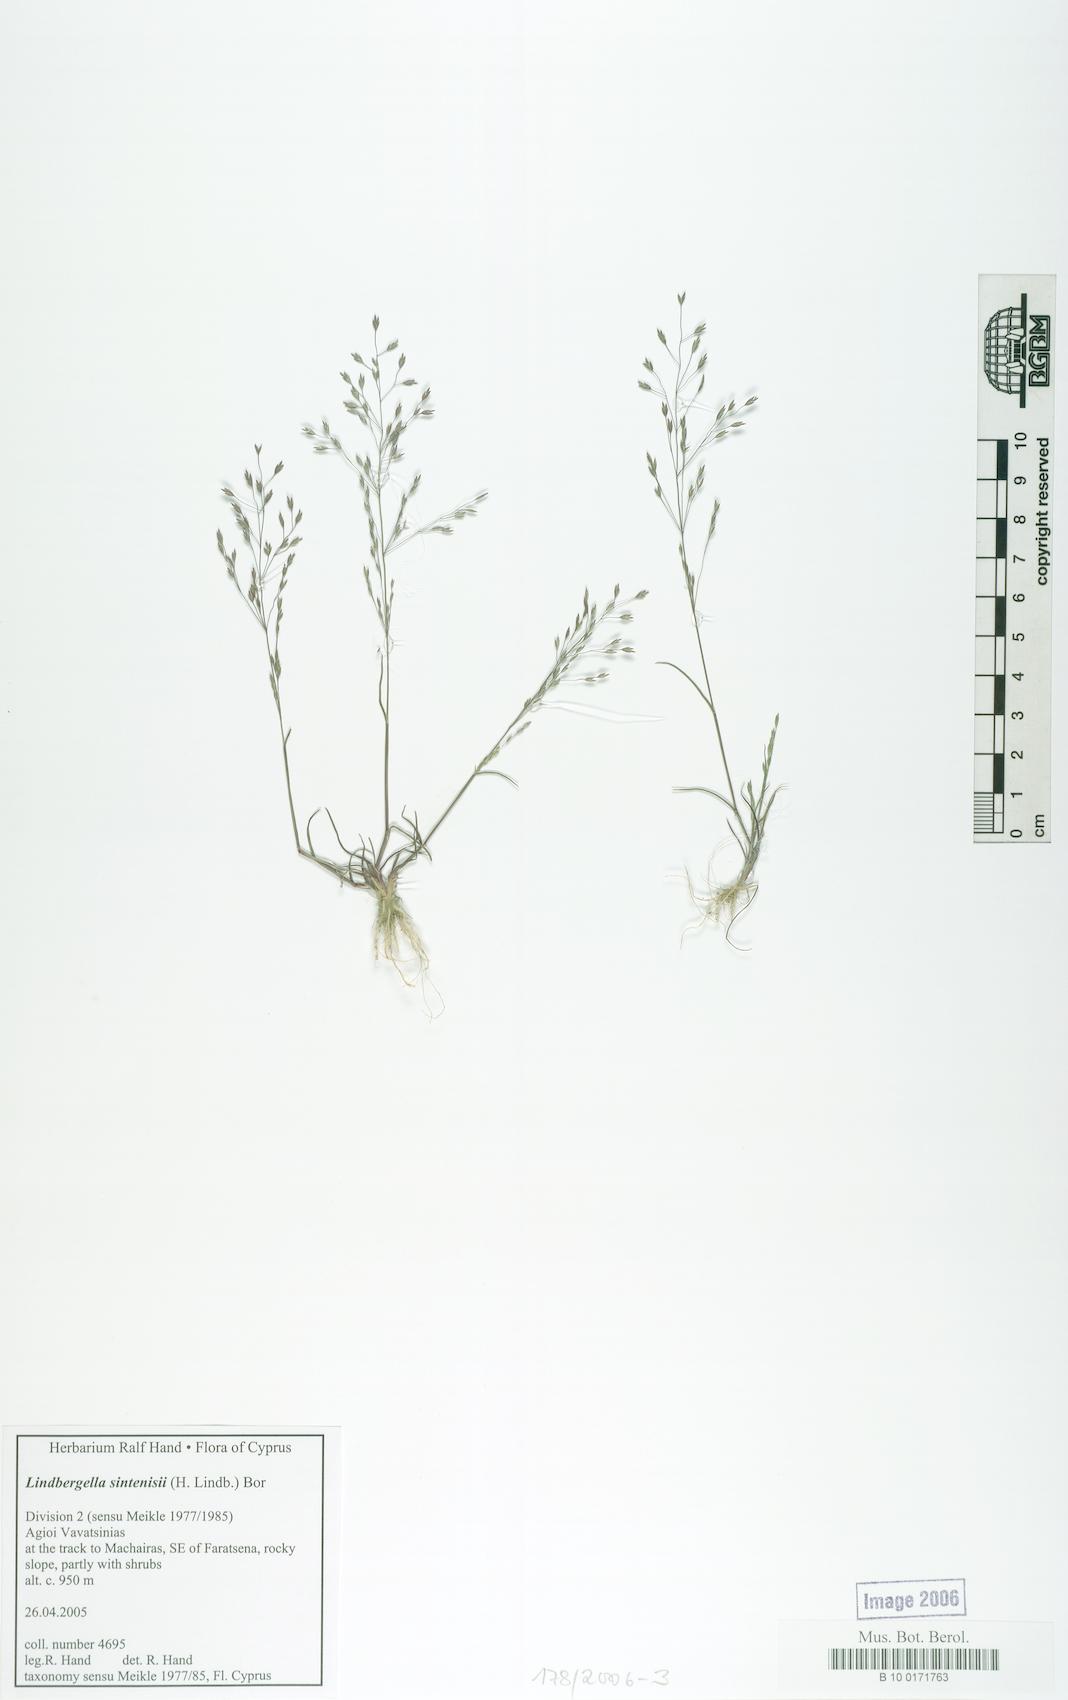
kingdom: Plantae
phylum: Tracheophyta
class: Liliopsida
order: Poales
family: Poaceae
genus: Poa
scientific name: Poa sintenisii
